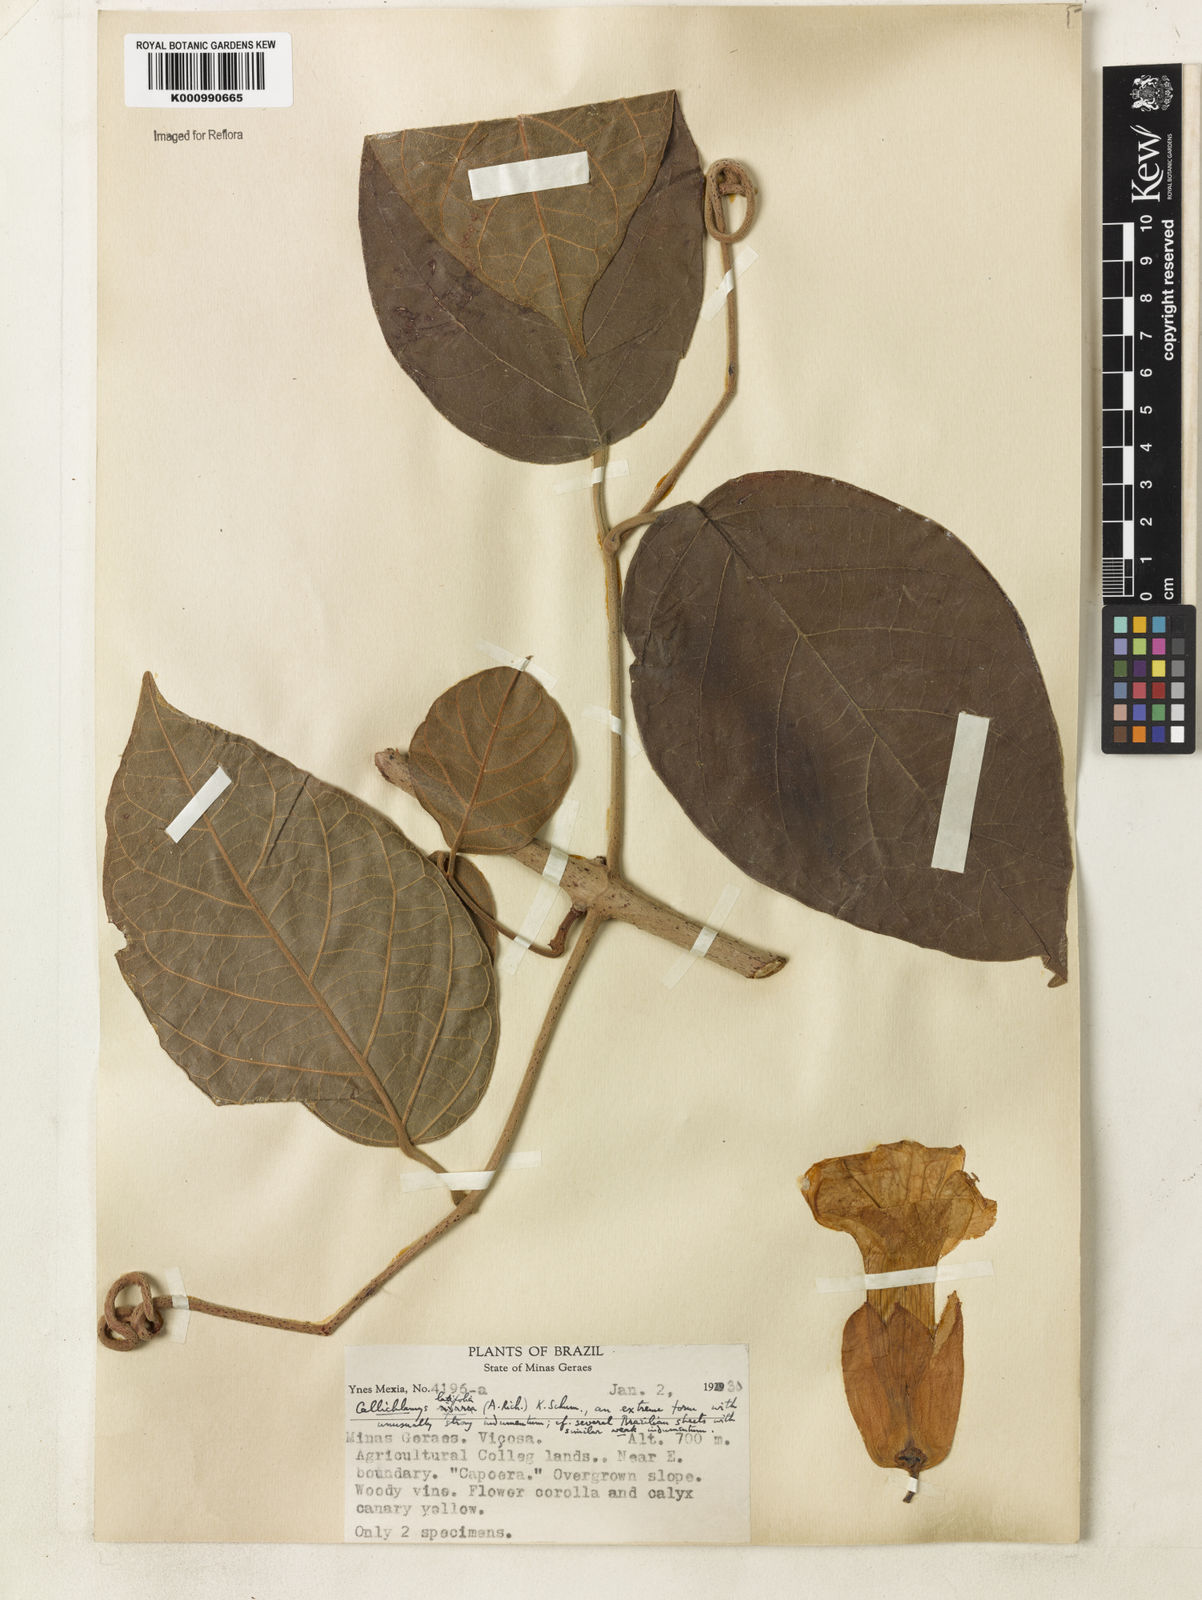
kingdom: Plantae
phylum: Tracheophyta
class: Magnoliopsida
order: Lamiales
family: Bignoniaceae
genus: Callichlamys
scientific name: Callichlamys latifolia
